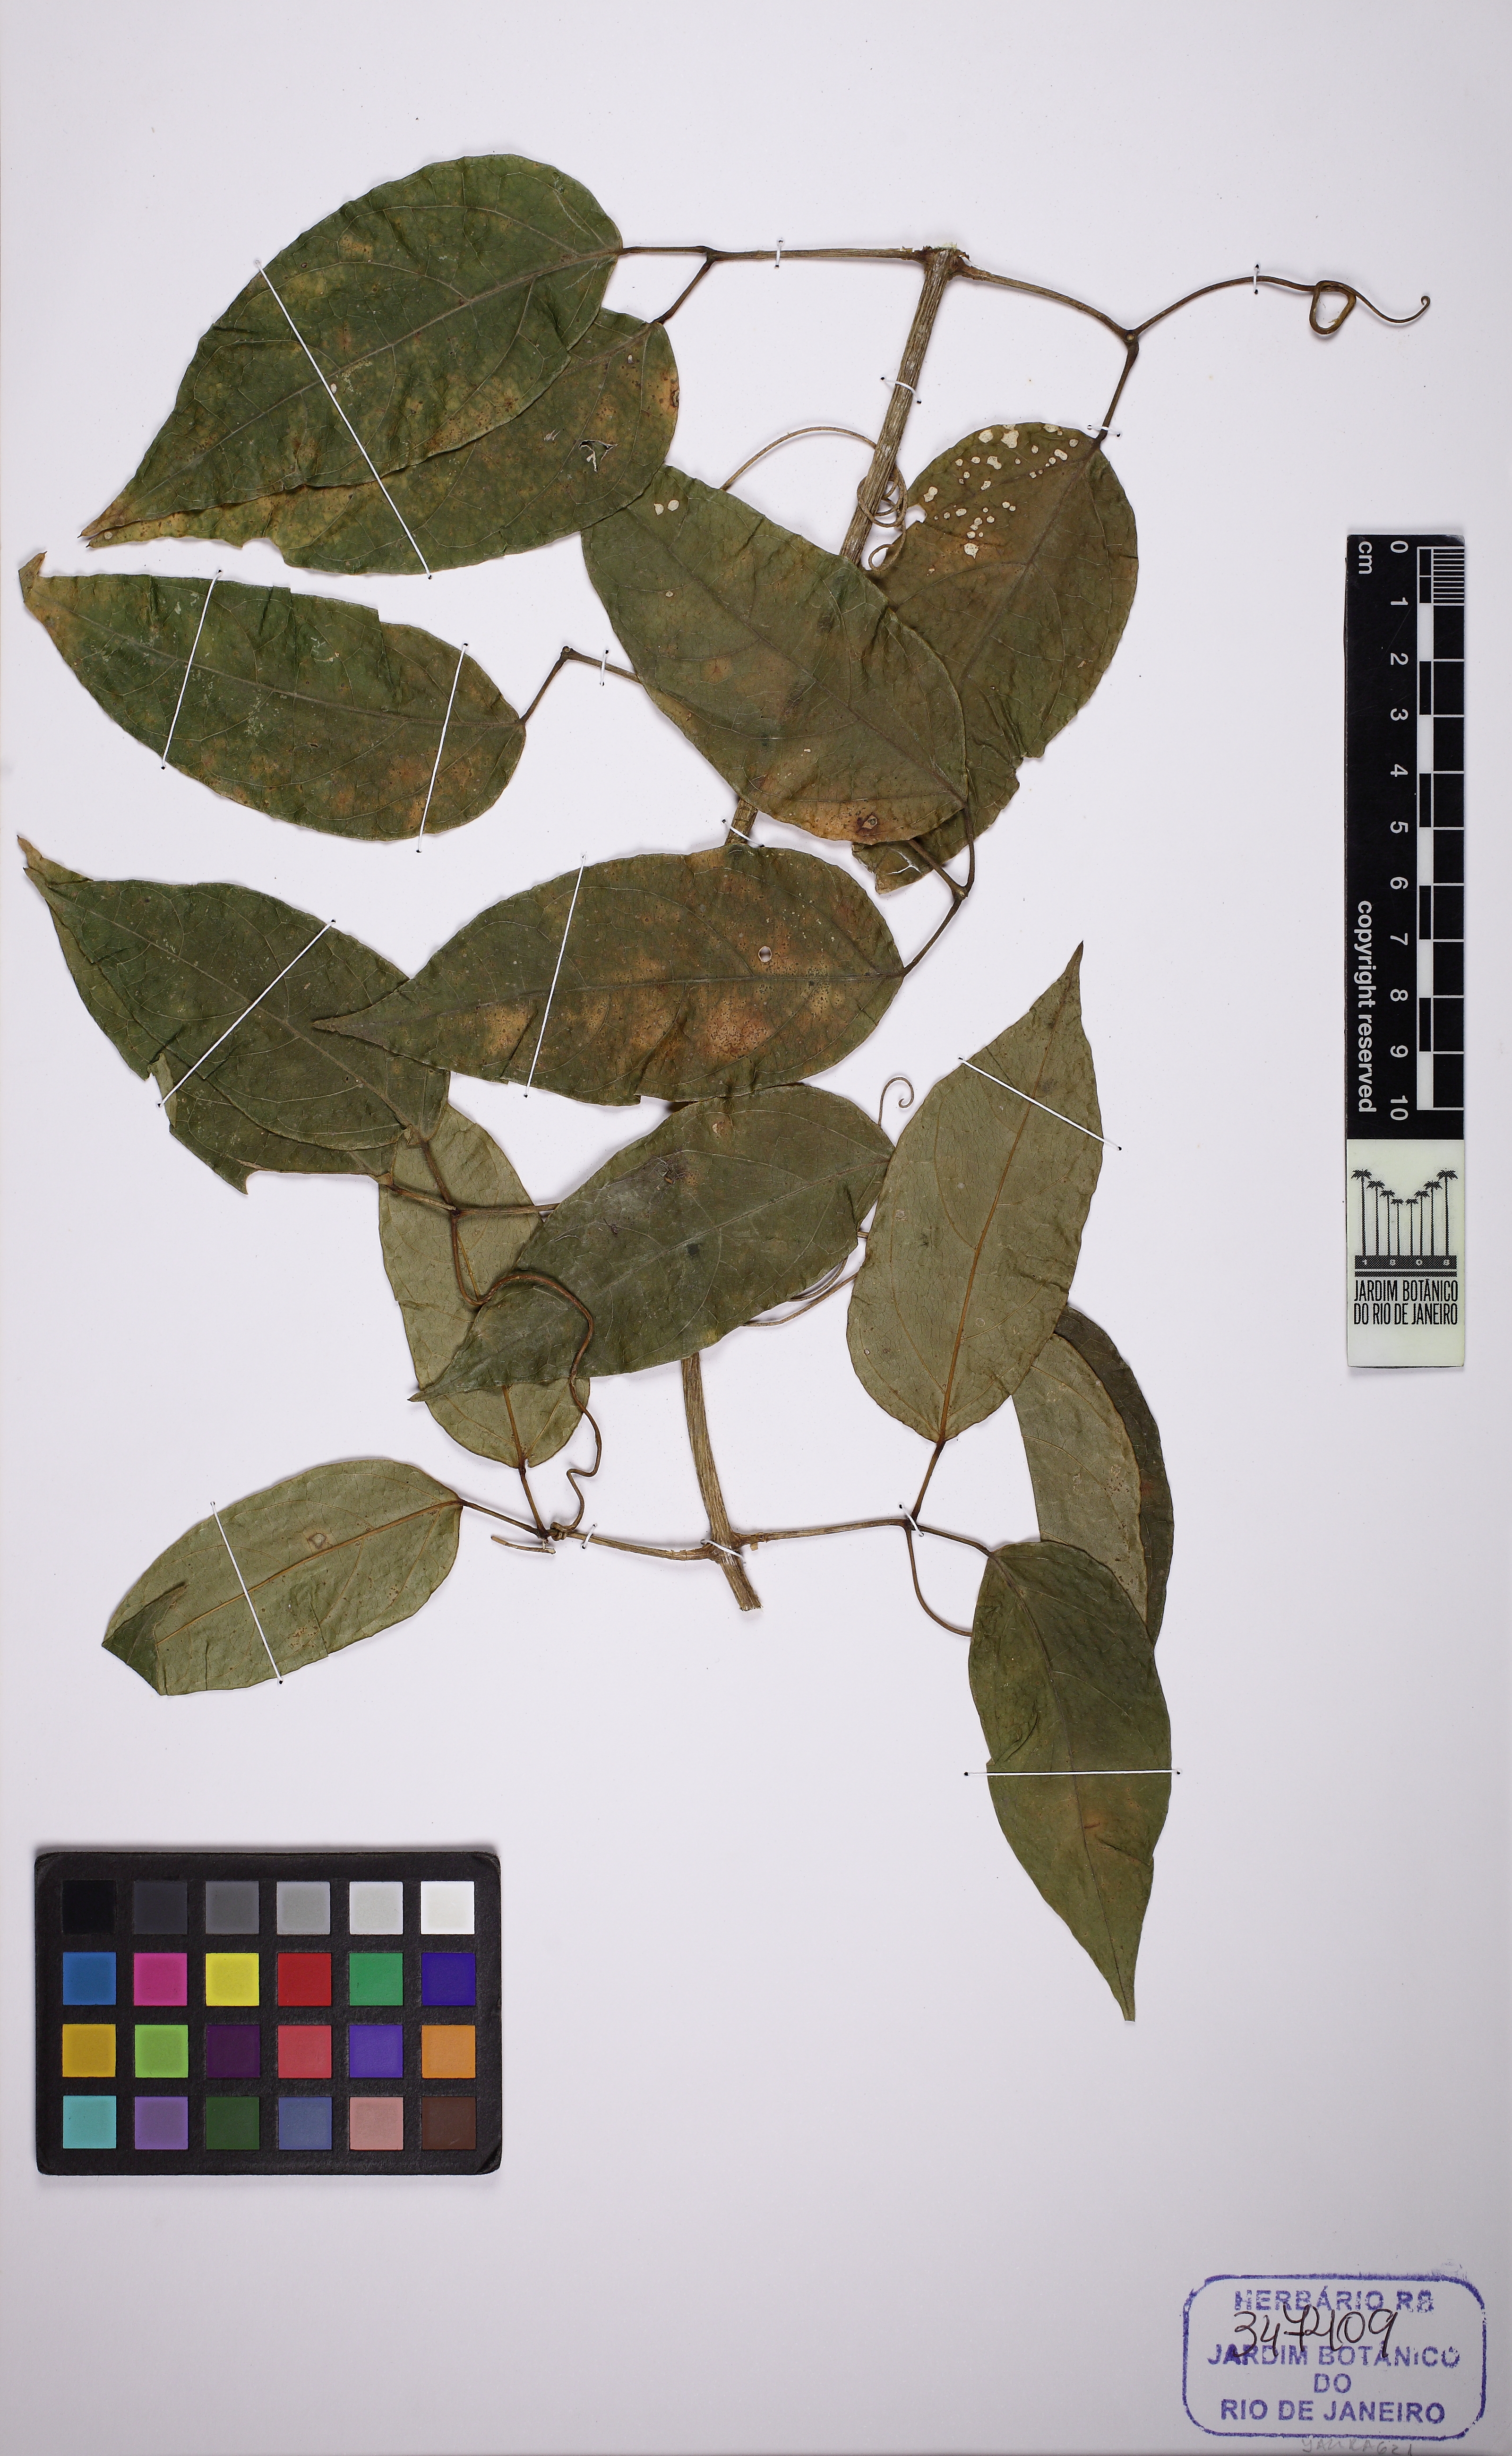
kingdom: Plantae
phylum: Tracheophyta
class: Magnoliopsida
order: Lamiales
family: Bignoniaceae
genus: Anemopaegma
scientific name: Anemopaegma chamberlaynii
